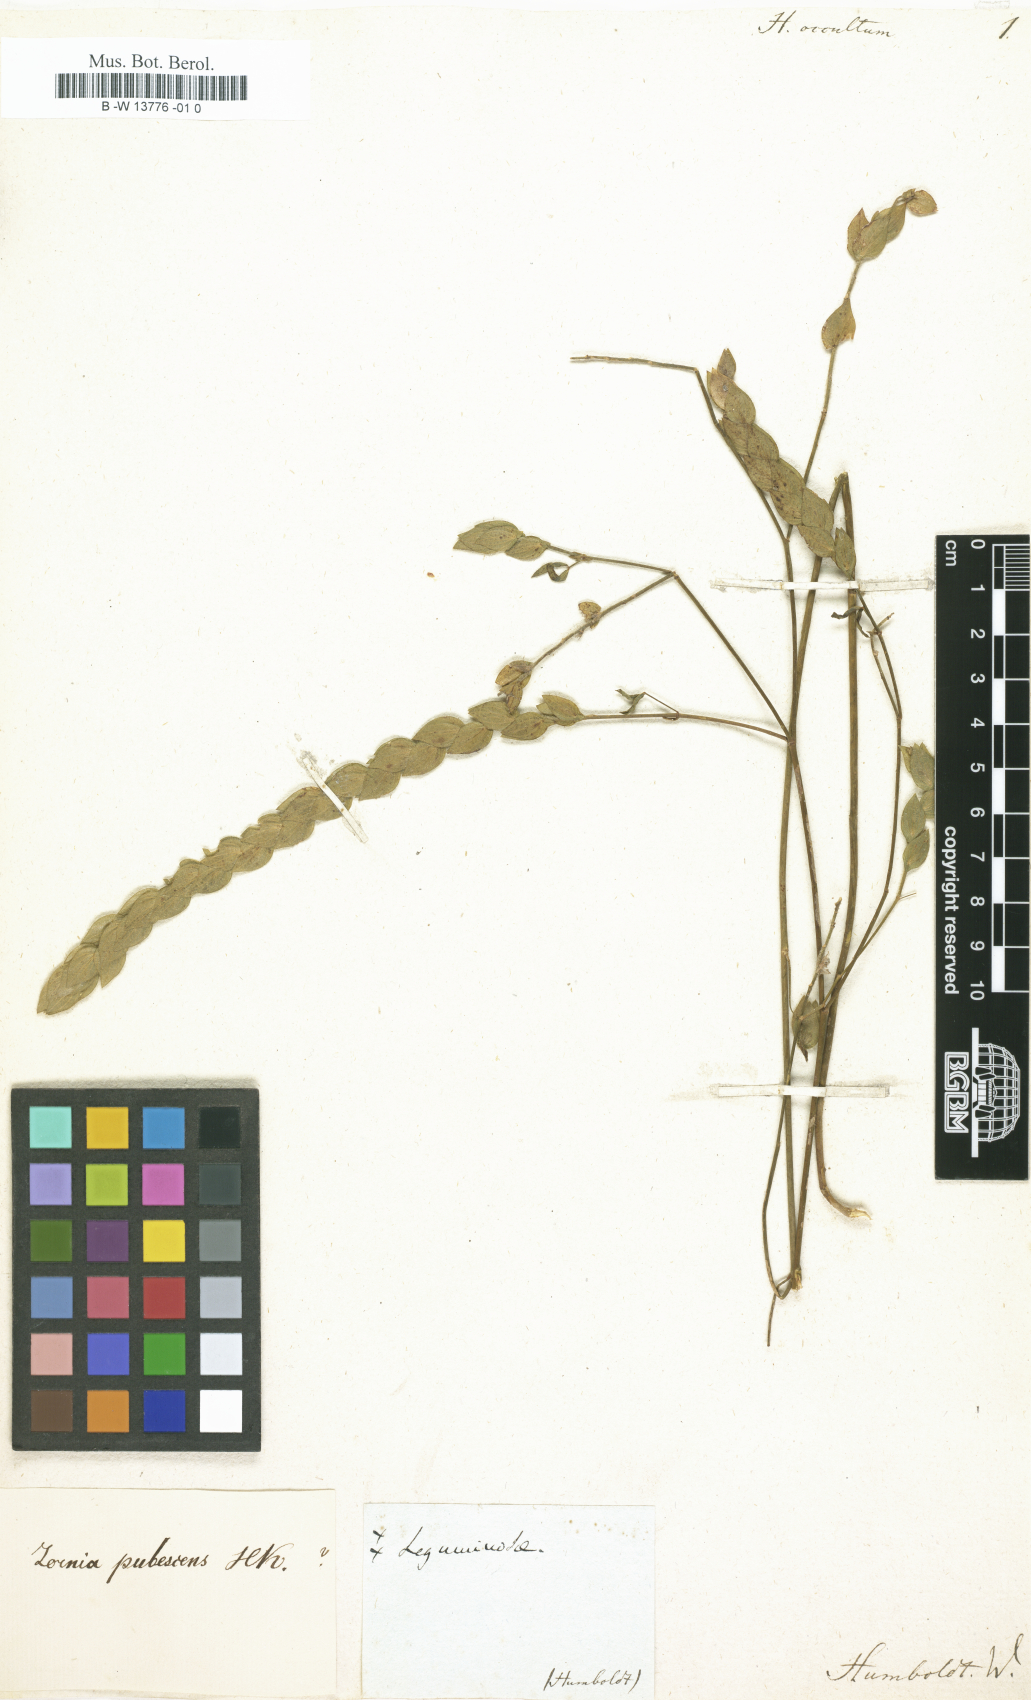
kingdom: Plantae
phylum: Tracheophyta
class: Magnoliopsida
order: Fabales
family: Fabaceae
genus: Hedysarum
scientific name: Hedysarum
